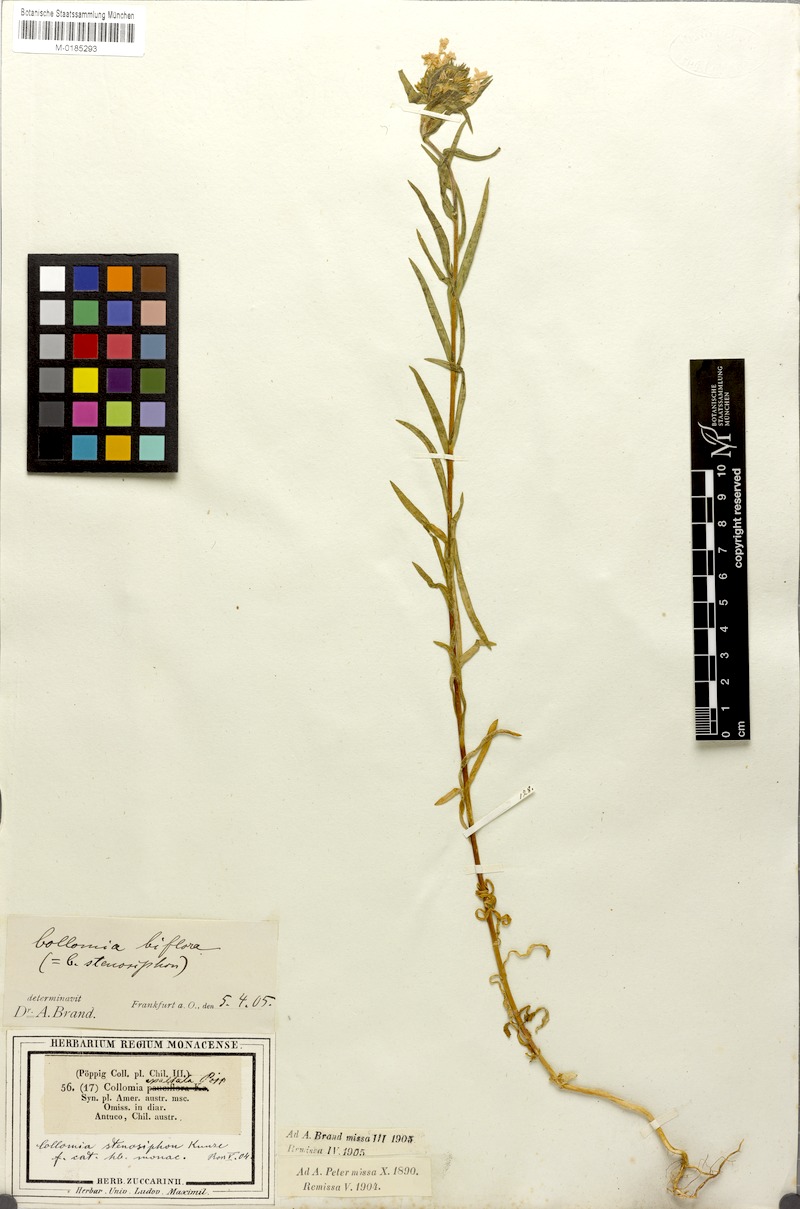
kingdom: Plantae
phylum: Tracheophyta
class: Magnoliopsida
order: Ericales
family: Polemoniaceae
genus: Collomia
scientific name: Collomia biflora
